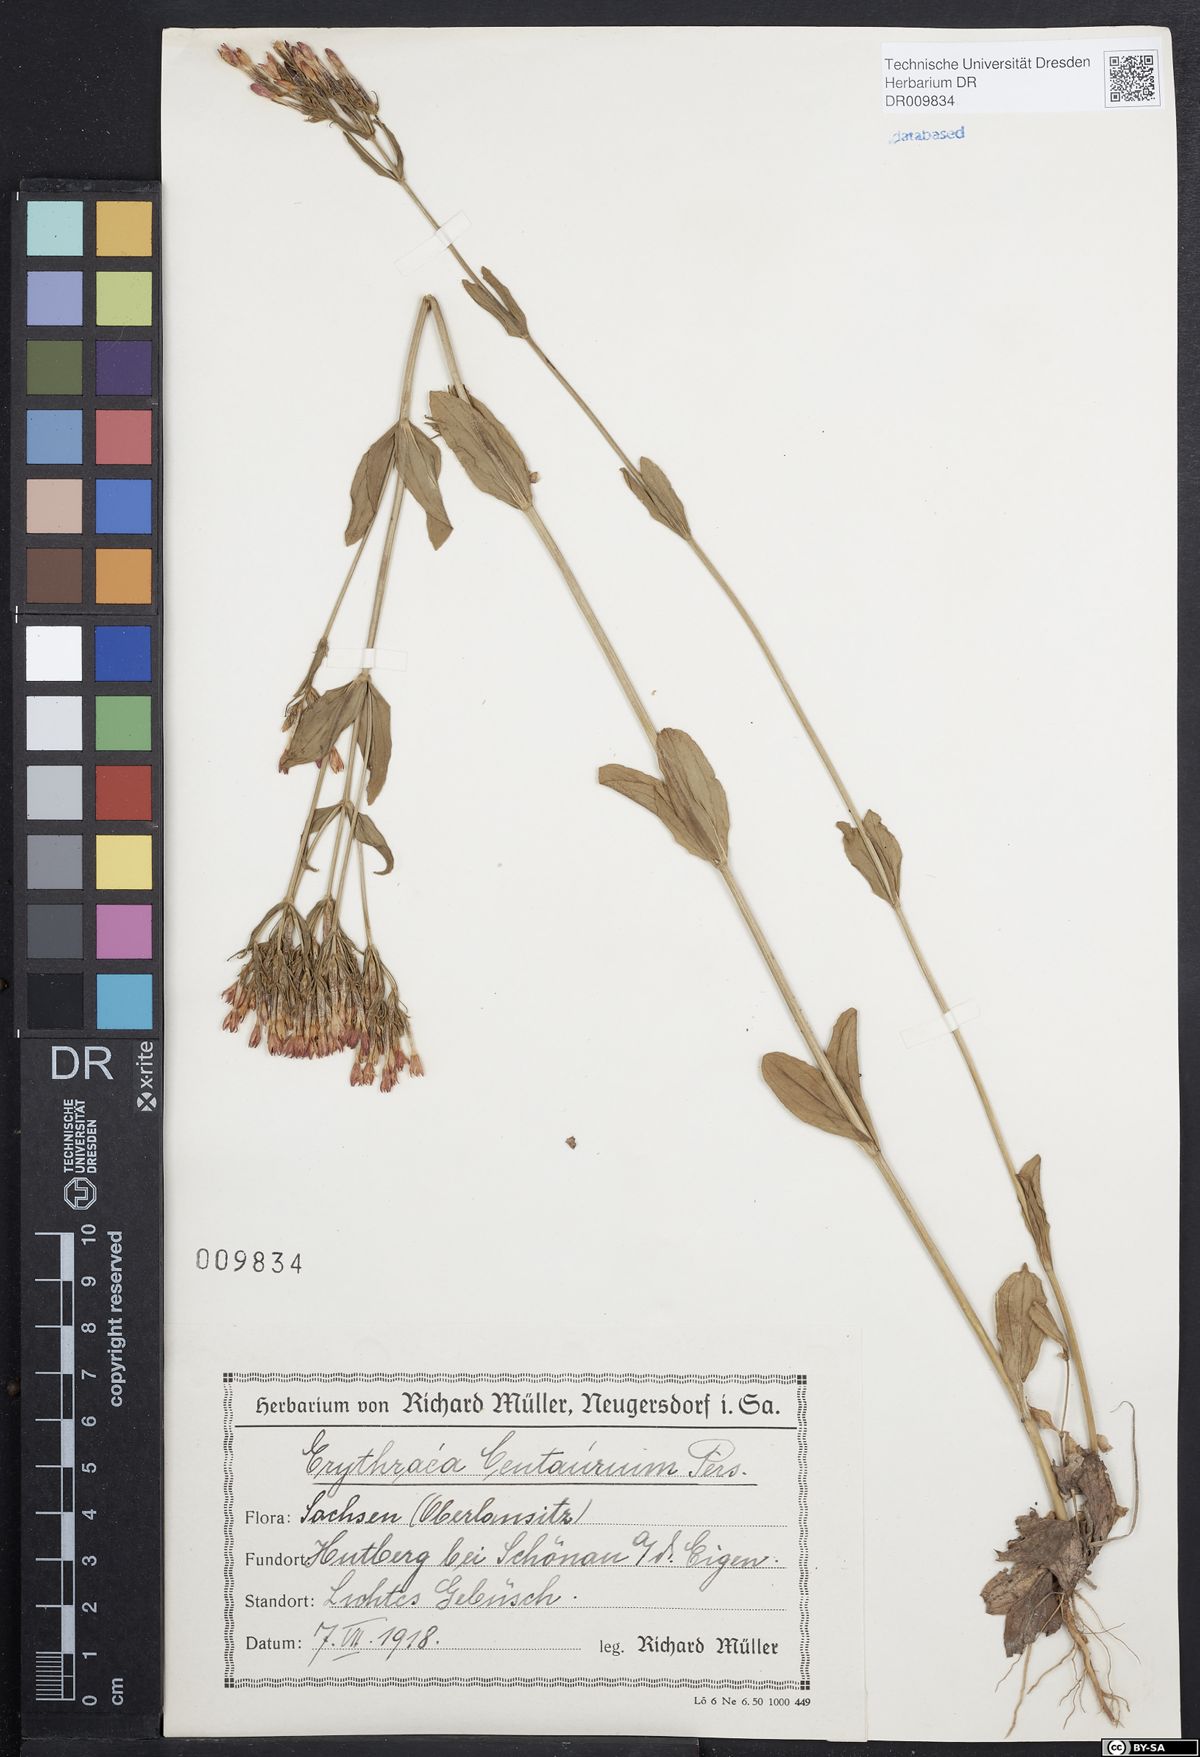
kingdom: Plantae
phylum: Tracheophyta
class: Magnoliopsida
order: Gentianales
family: Gentianaceae
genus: Centaurium
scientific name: Centaurium erythraea
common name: Common centaury
